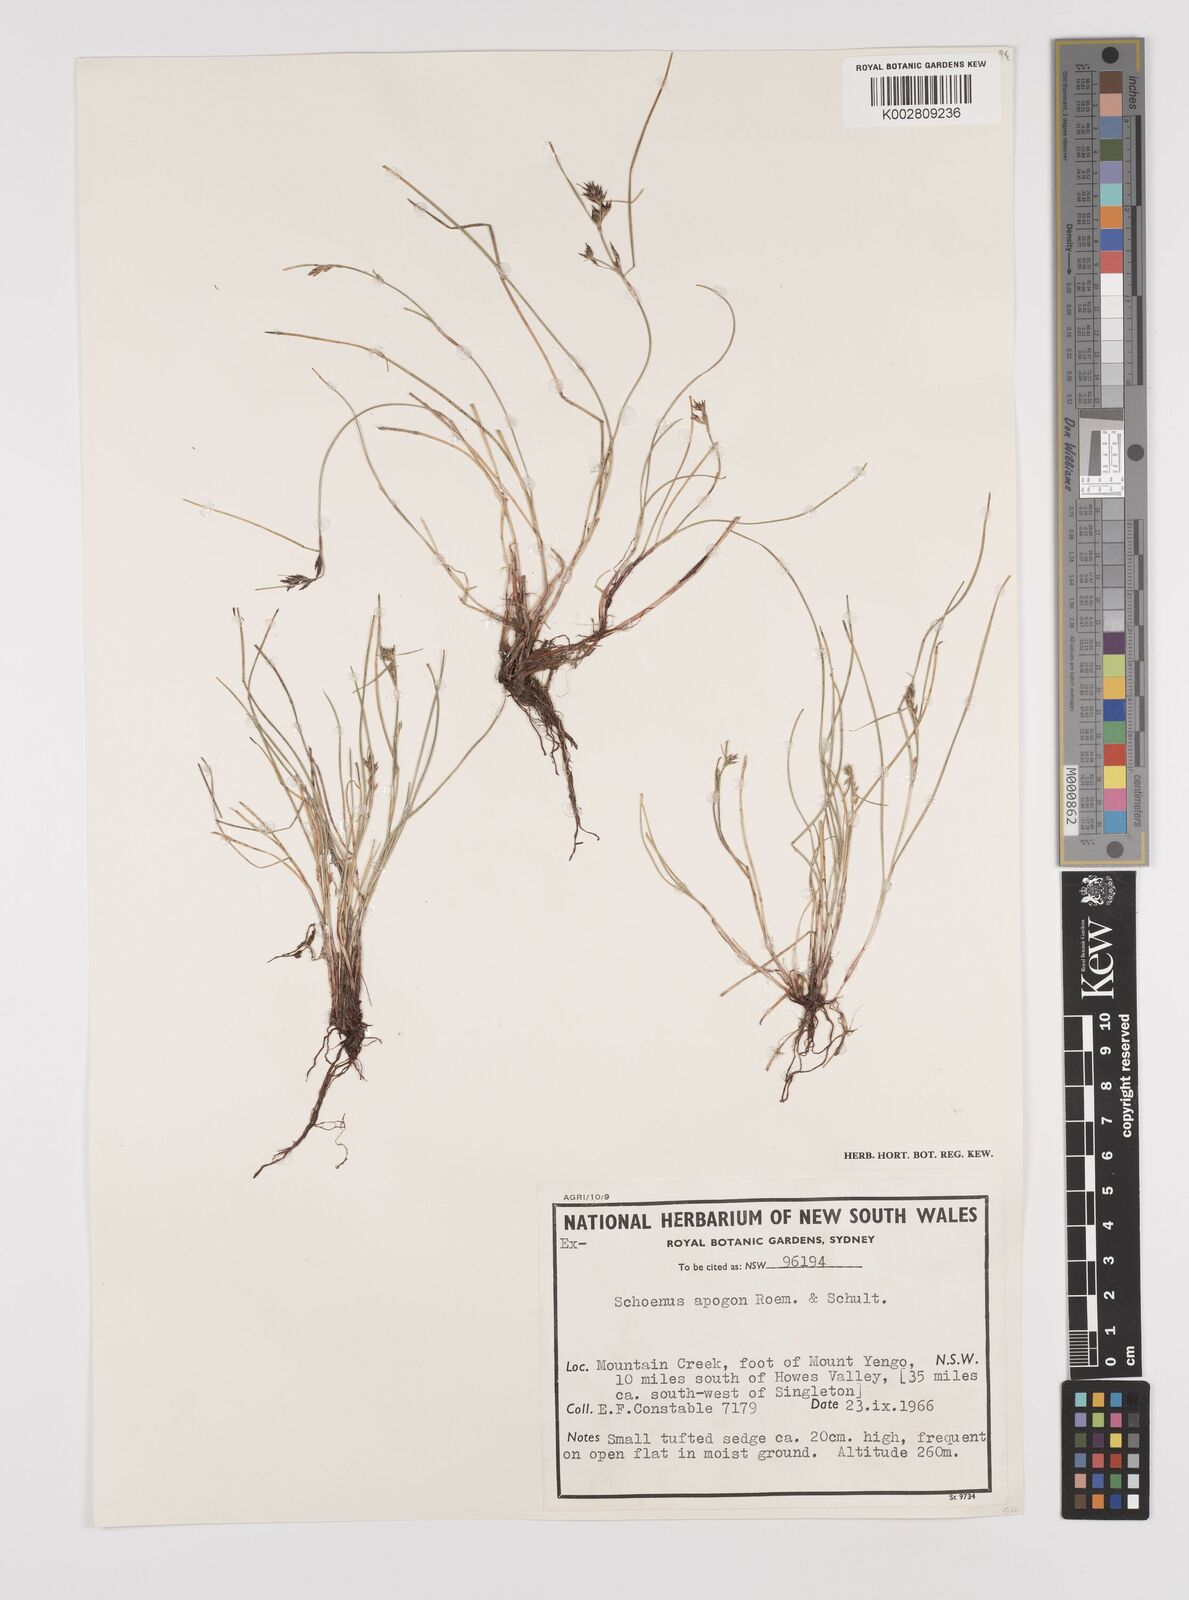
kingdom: Plantae
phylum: Tracheophyta
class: Liliopsida
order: Poales
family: Cyperaceae
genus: Schoenus
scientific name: Schoenus apogon
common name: Smooth bogrush
